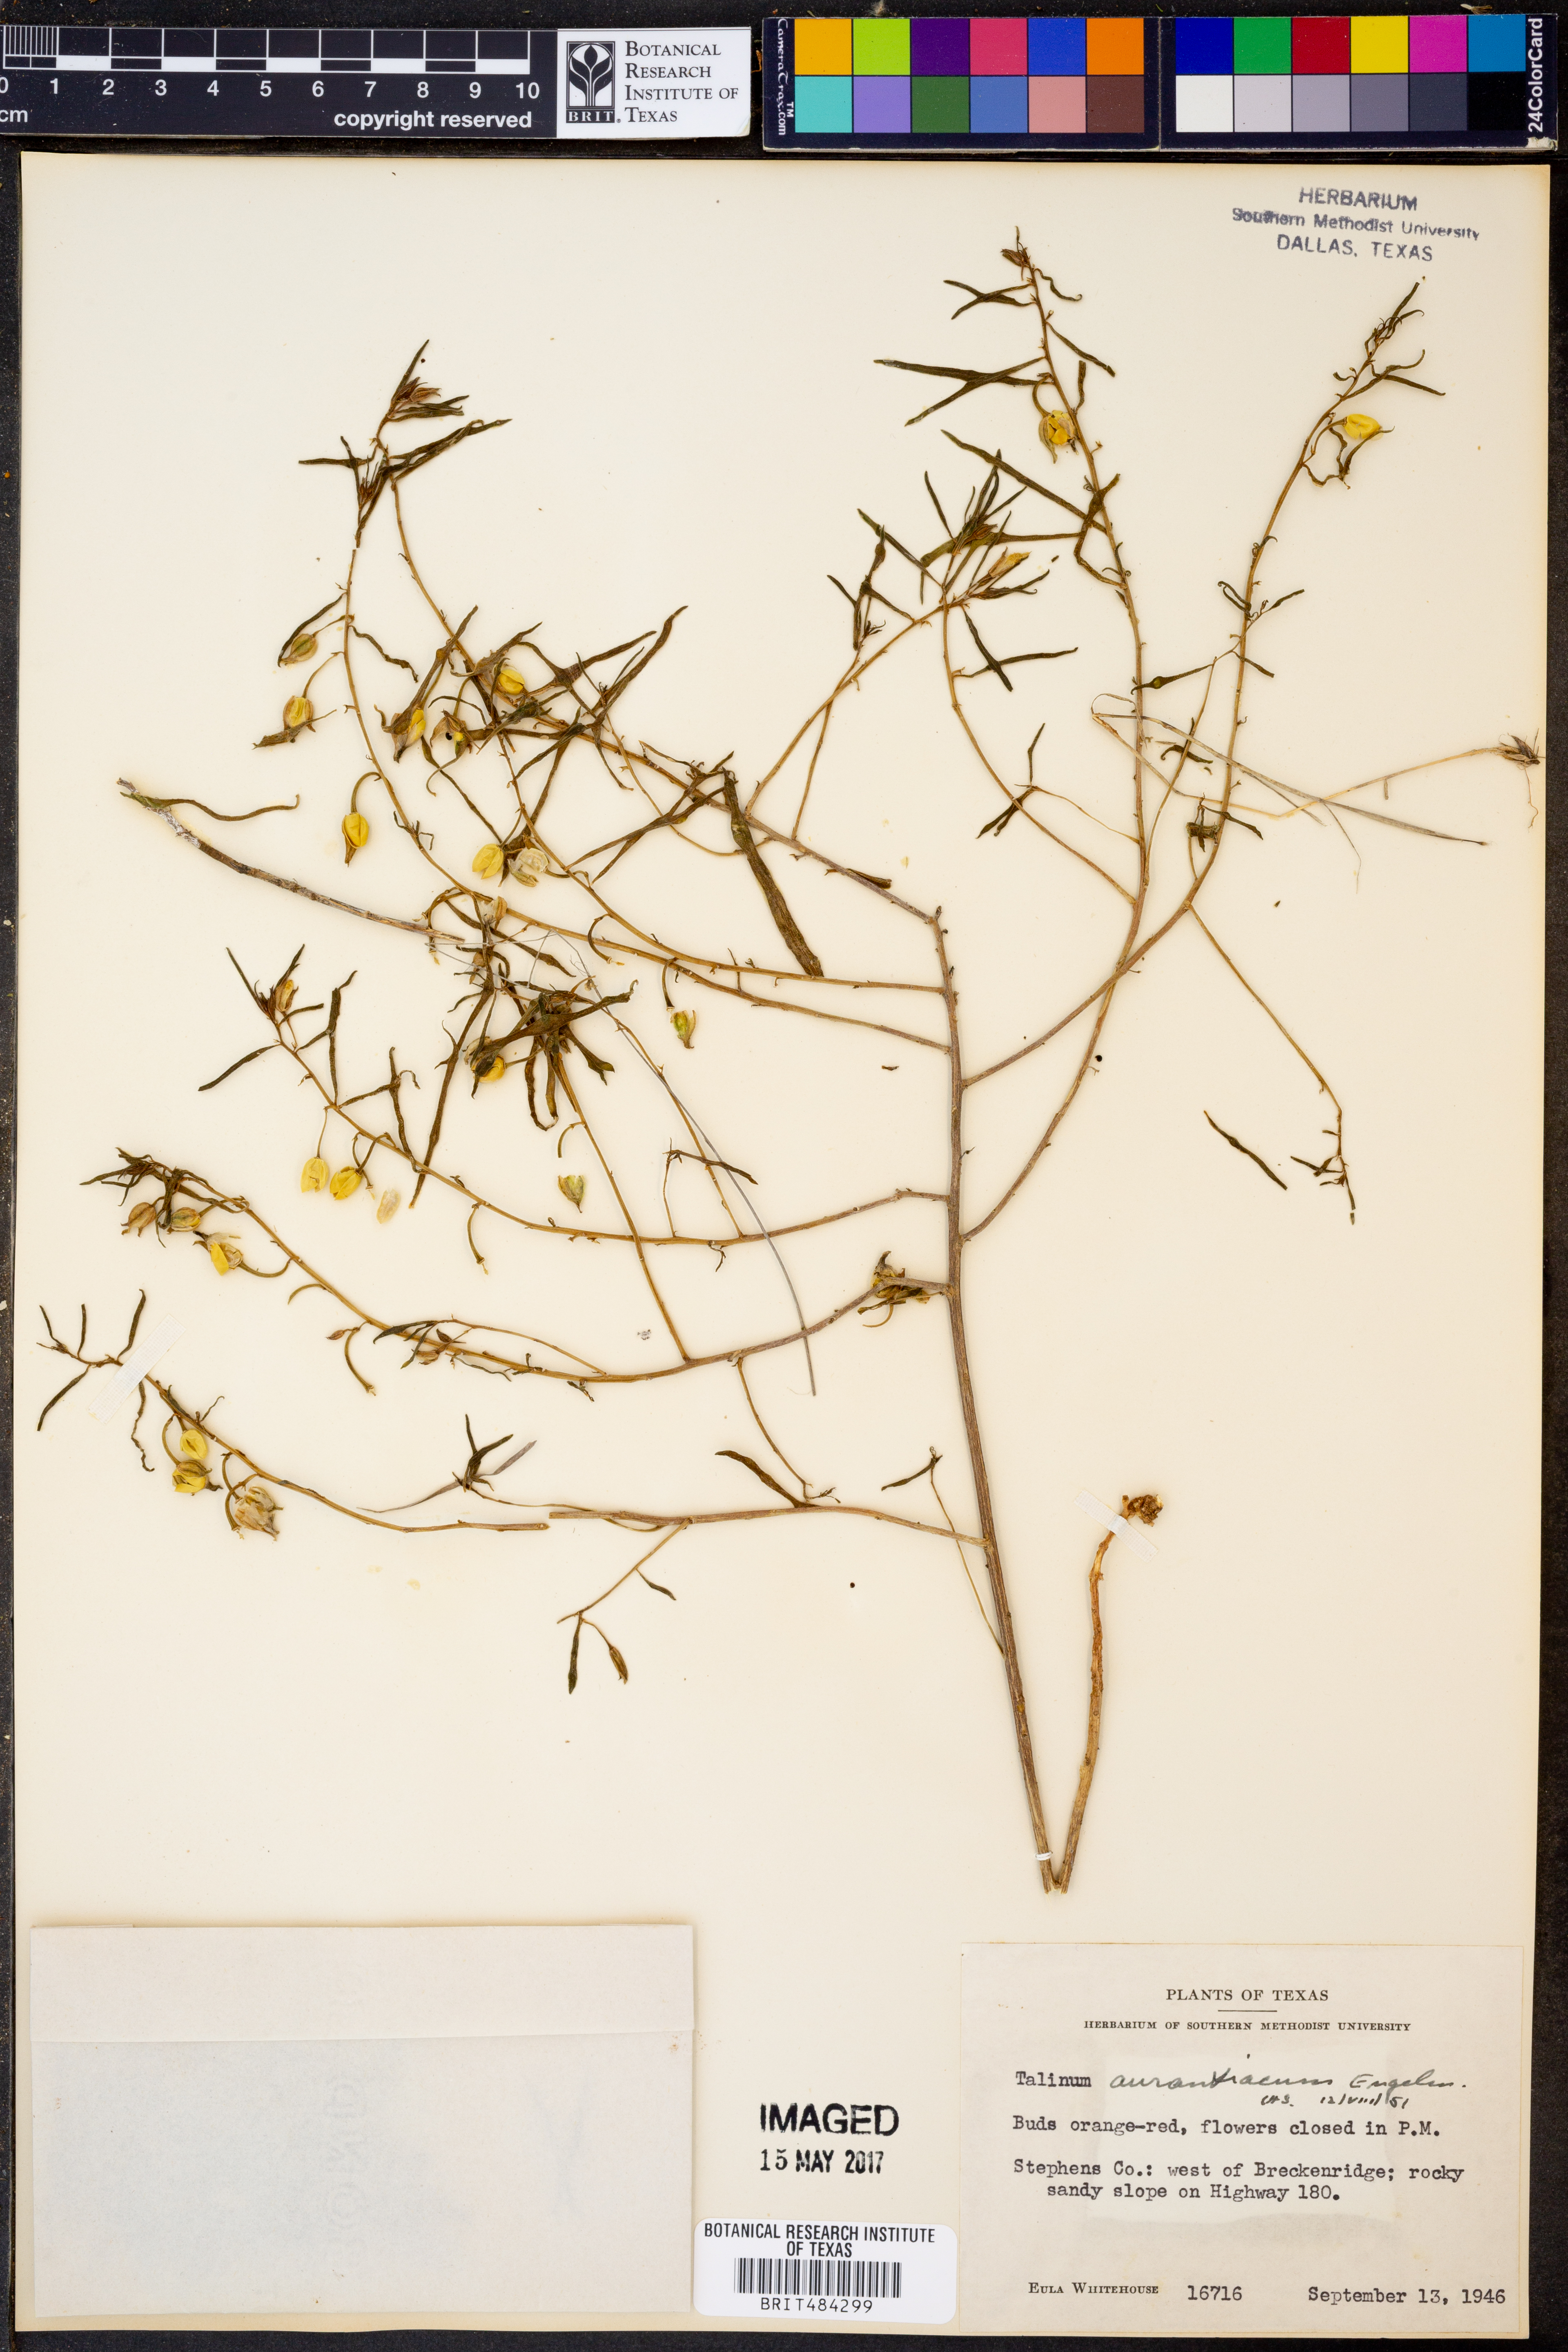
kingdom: Plantae
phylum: Tracheophyta
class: Magnoliopsida
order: Caryophyllales
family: Montiaceae
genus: Phemeranthus
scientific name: Phemeranthus aurantiacus
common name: Orange fameflower
